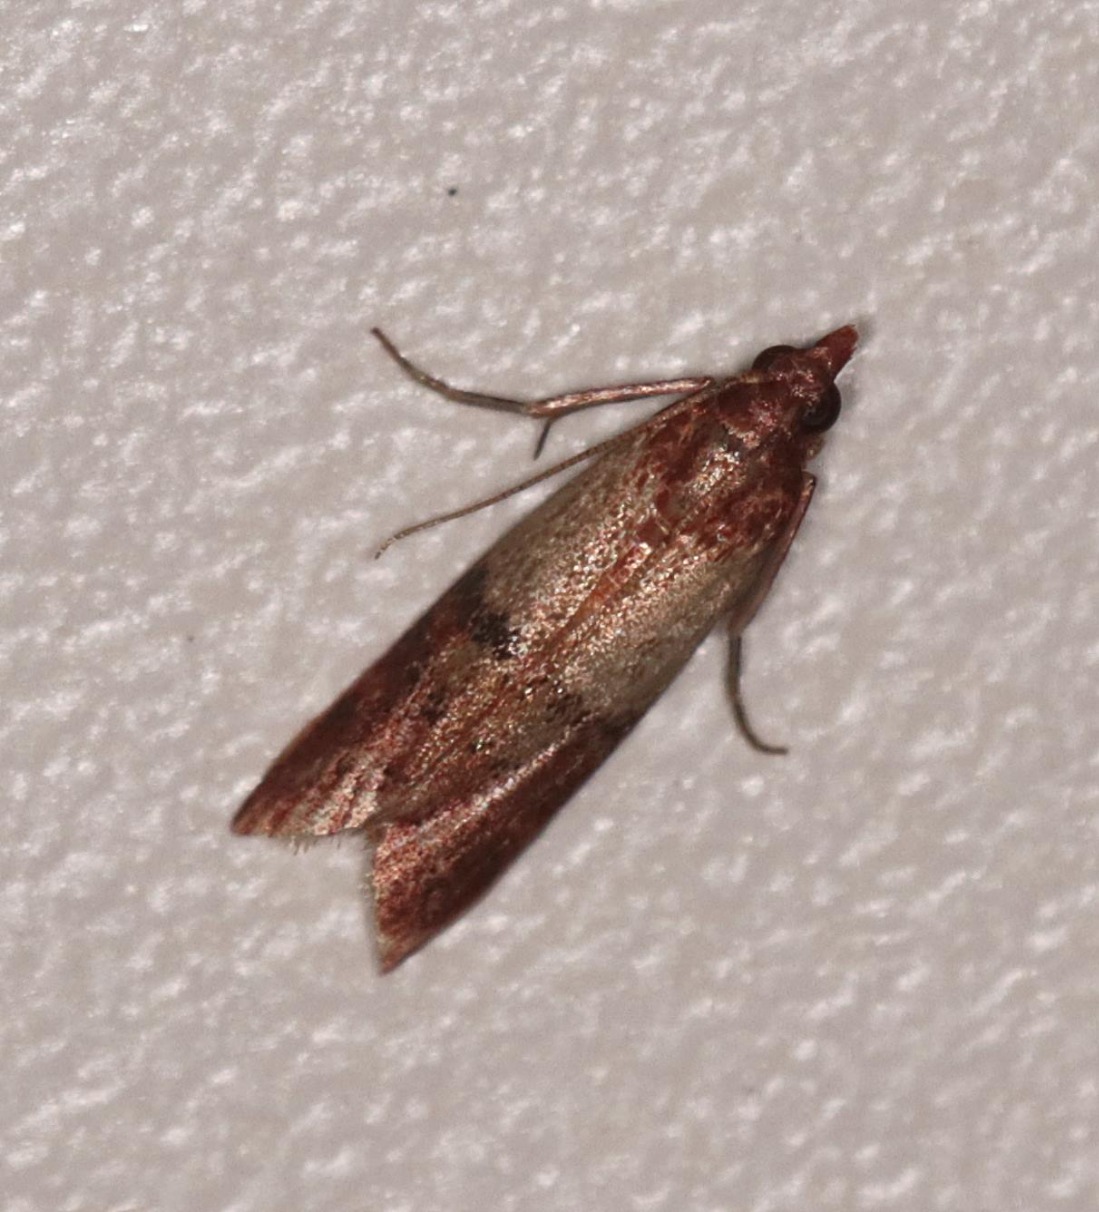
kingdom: Animalia
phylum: Arthropoda
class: Insecta
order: Lepidoptera
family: Pyralidae
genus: Plodia
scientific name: Plodia interpunctella
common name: Tofarvet frømøl
